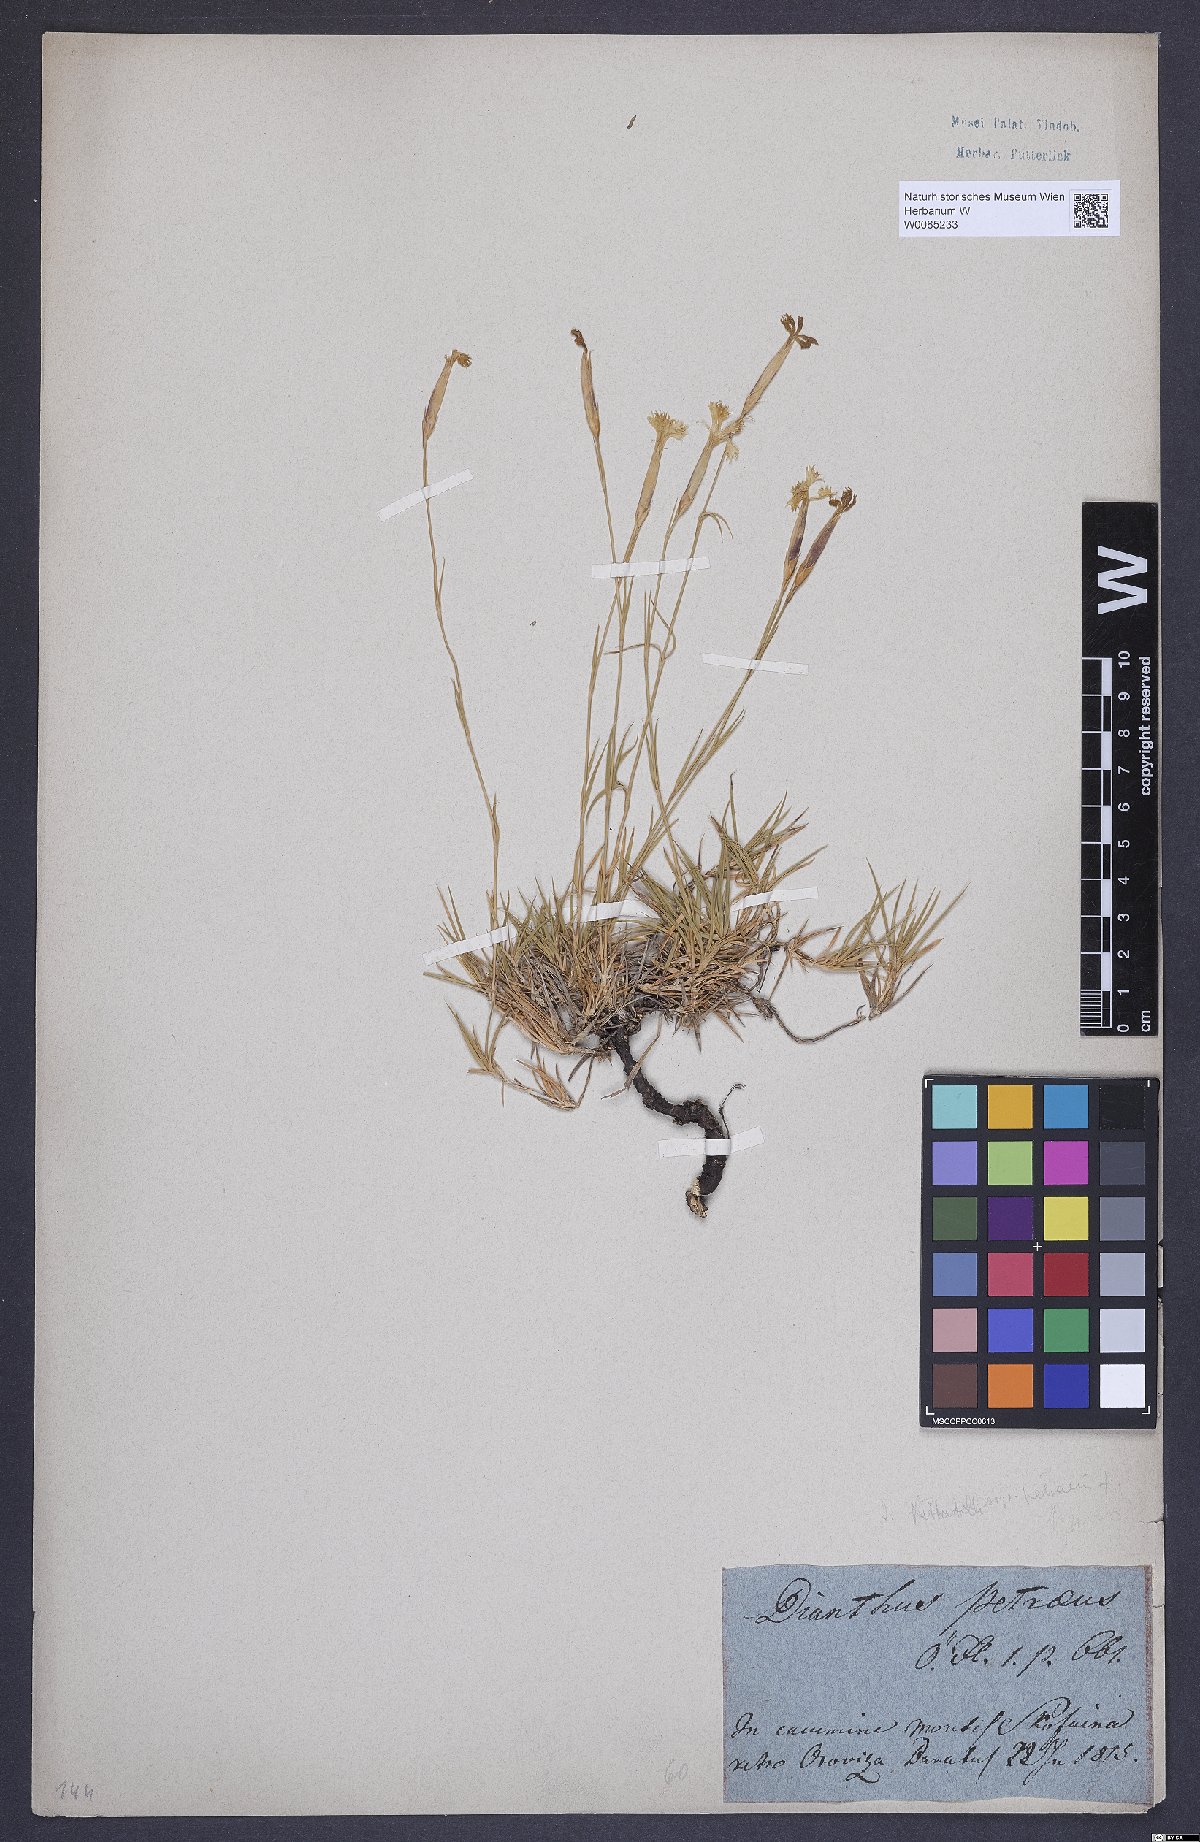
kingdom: Plantae
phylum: Tracheophyta
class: Magnoliopsida
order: Caryophyllales
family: Caryophyllaceae
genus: Dianthus
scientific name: Dianthus petraeus
